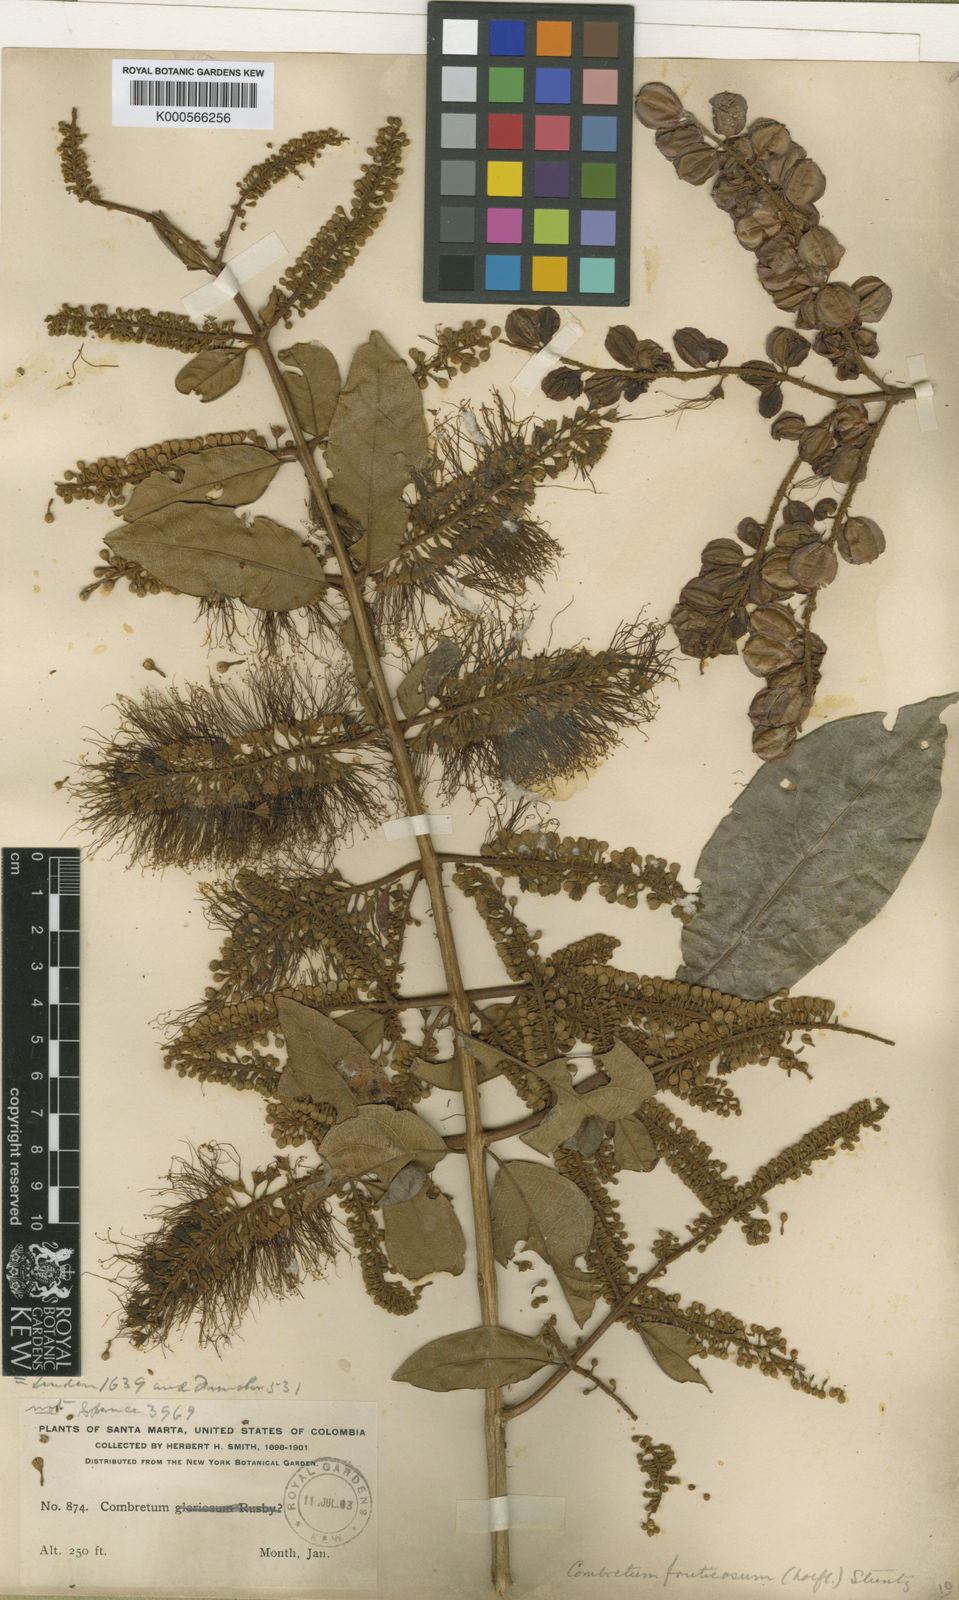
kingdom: Plantae
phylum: Tracheophyta
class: Magnoliopsida
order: Myrtales
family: Combretaceae
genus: Combretum
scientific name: Combretum fruticosum
